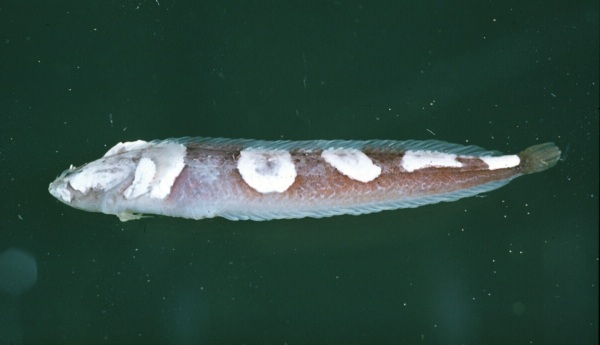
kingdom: Animalia
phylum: Chordata
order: Perciformes
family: Clinidae
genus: Xenopoclinus
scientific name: Xenopoclinus leprosus
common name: Leprous platanna-klipfish
